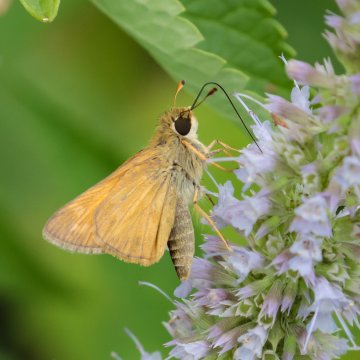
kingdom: Animalia
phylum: Arthropoda
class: Insecta
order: Lepidoptera
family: Hesperiidae
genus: Atalopedes
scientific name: Atalopedes campestris
